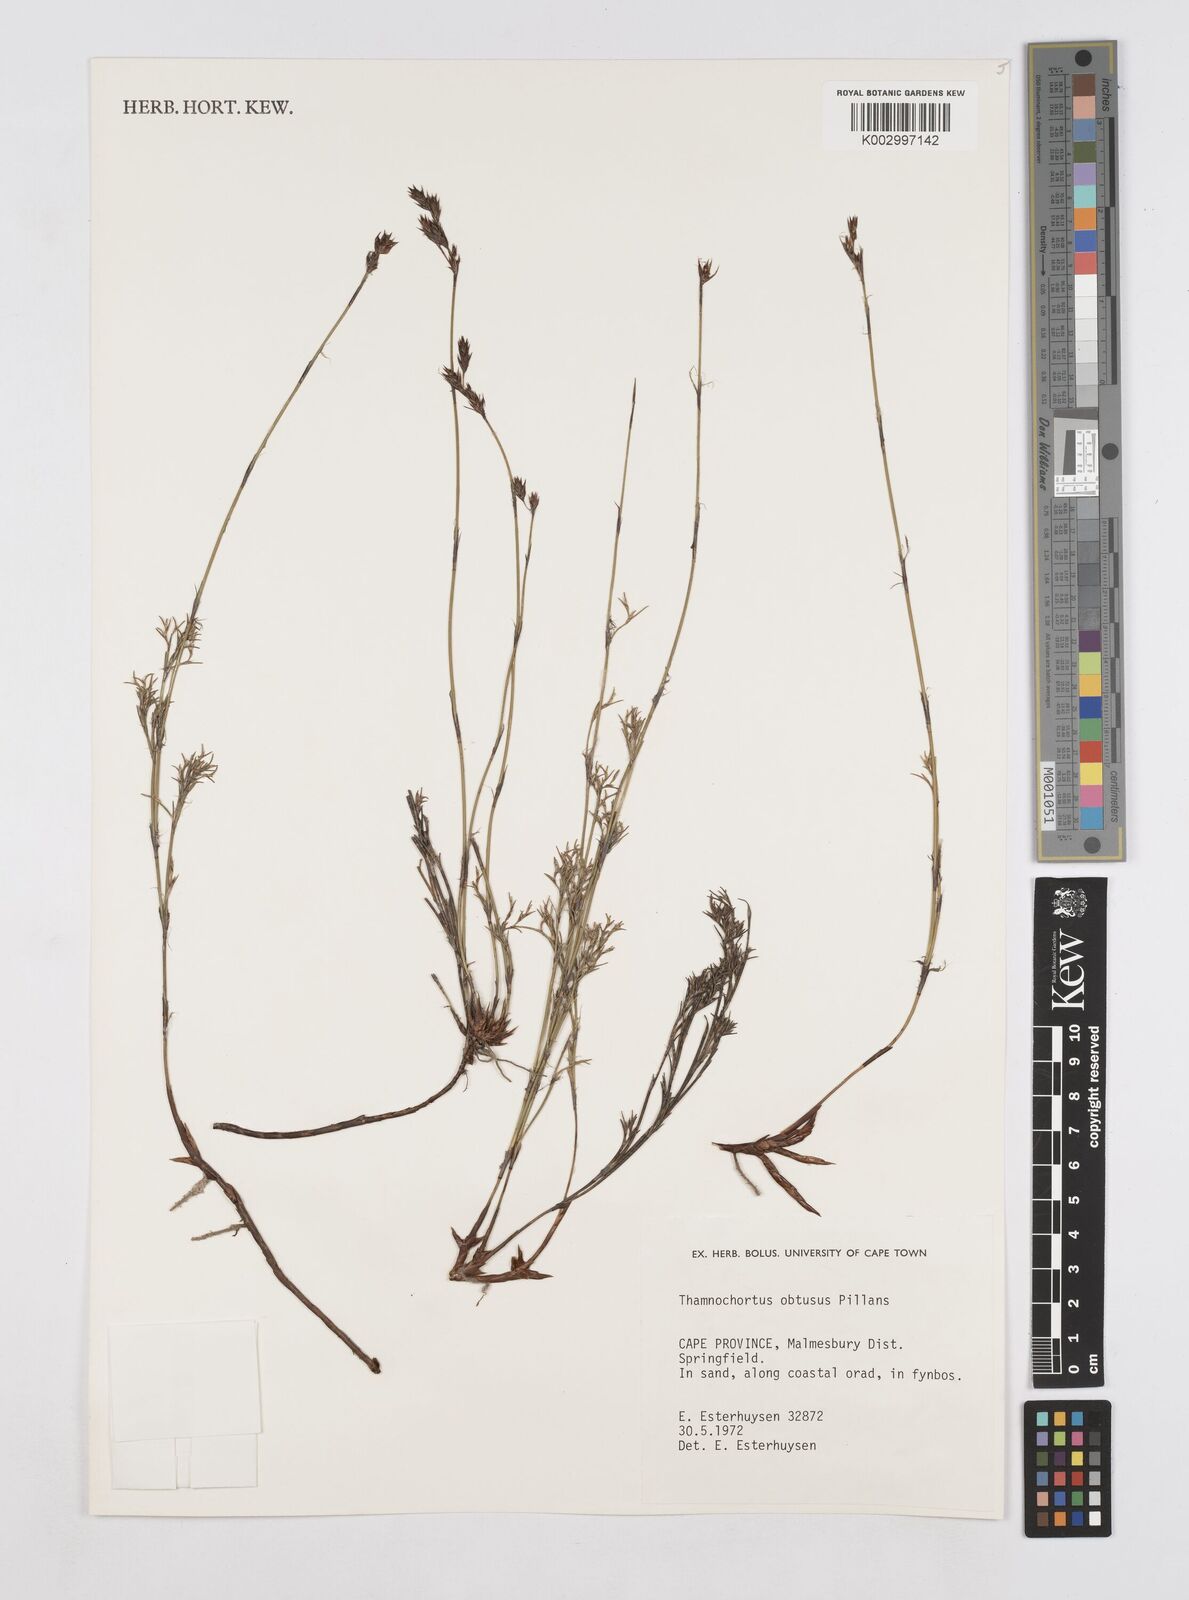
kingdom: Plantae
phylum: Tracheophyta
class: Liliopsida
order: Poales
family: Restionaceae
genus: Thamnochortus
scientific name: Thamnochortus obtusus
